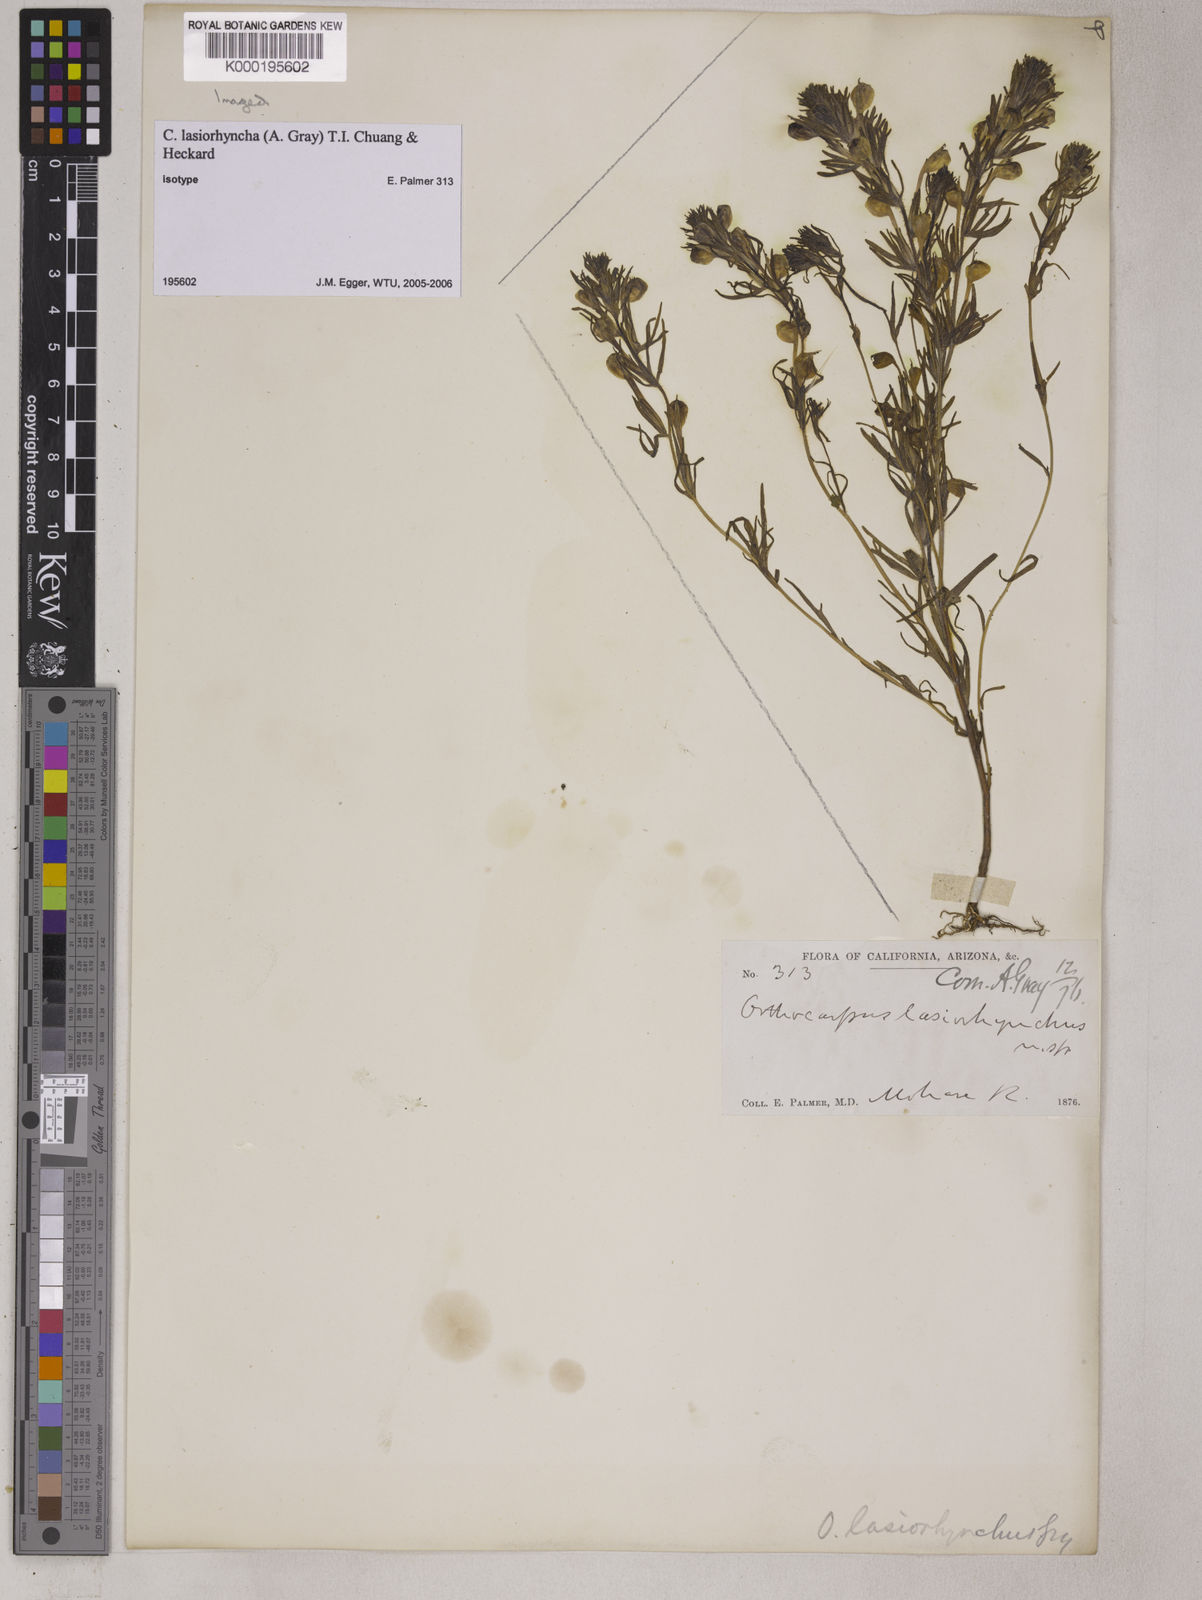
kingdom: Plantae
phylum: Tracheophyta
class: Magnoliopsida
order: Lamiales
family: Orobanchaceae
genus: Castilleja
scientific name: Castilleja lasiorhyncha
